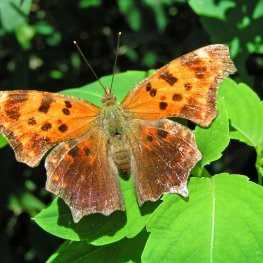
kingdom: Animalia
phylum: Arthropoda
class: Insecta
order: Lepidoptera
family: Nymphalidae
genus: Polygonia
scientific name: Polygonia comma
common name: Eastern Comma
